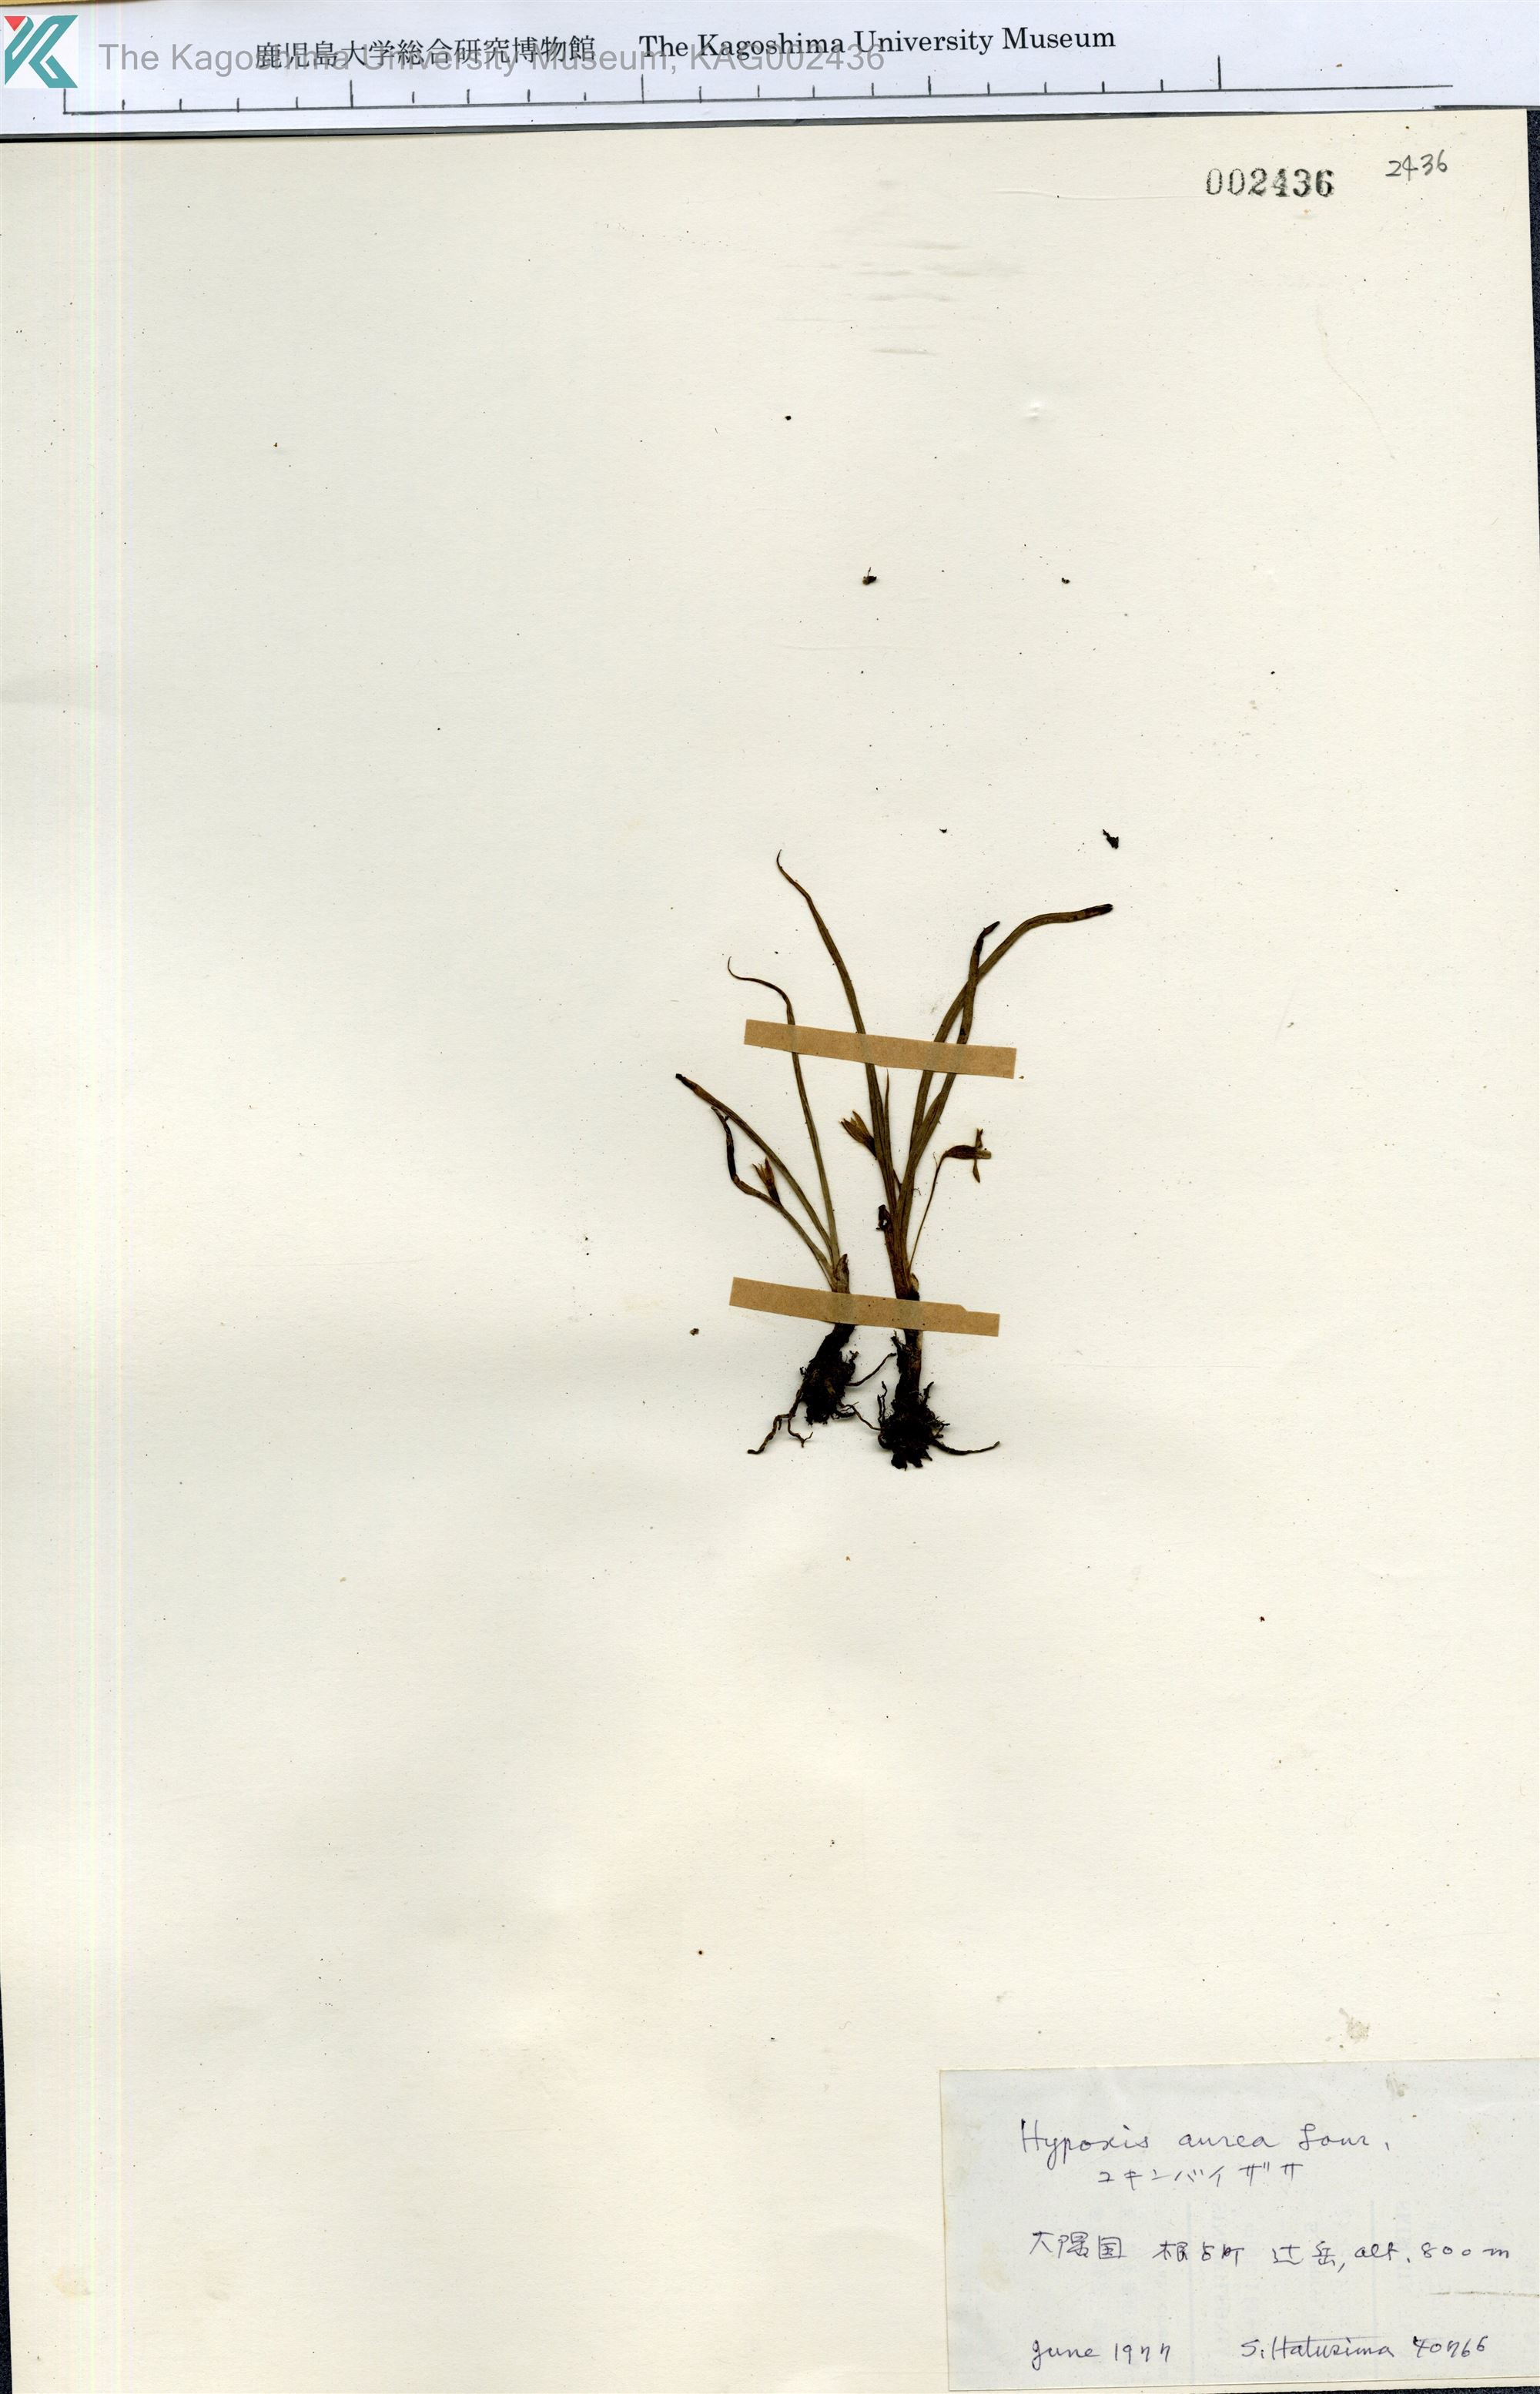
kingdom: Plantae
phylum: Tracheophyta
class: Liliopsida
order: Asparagales
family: Hypoxidaceae
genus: Hypoxis
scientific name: Hypoxis aurea
